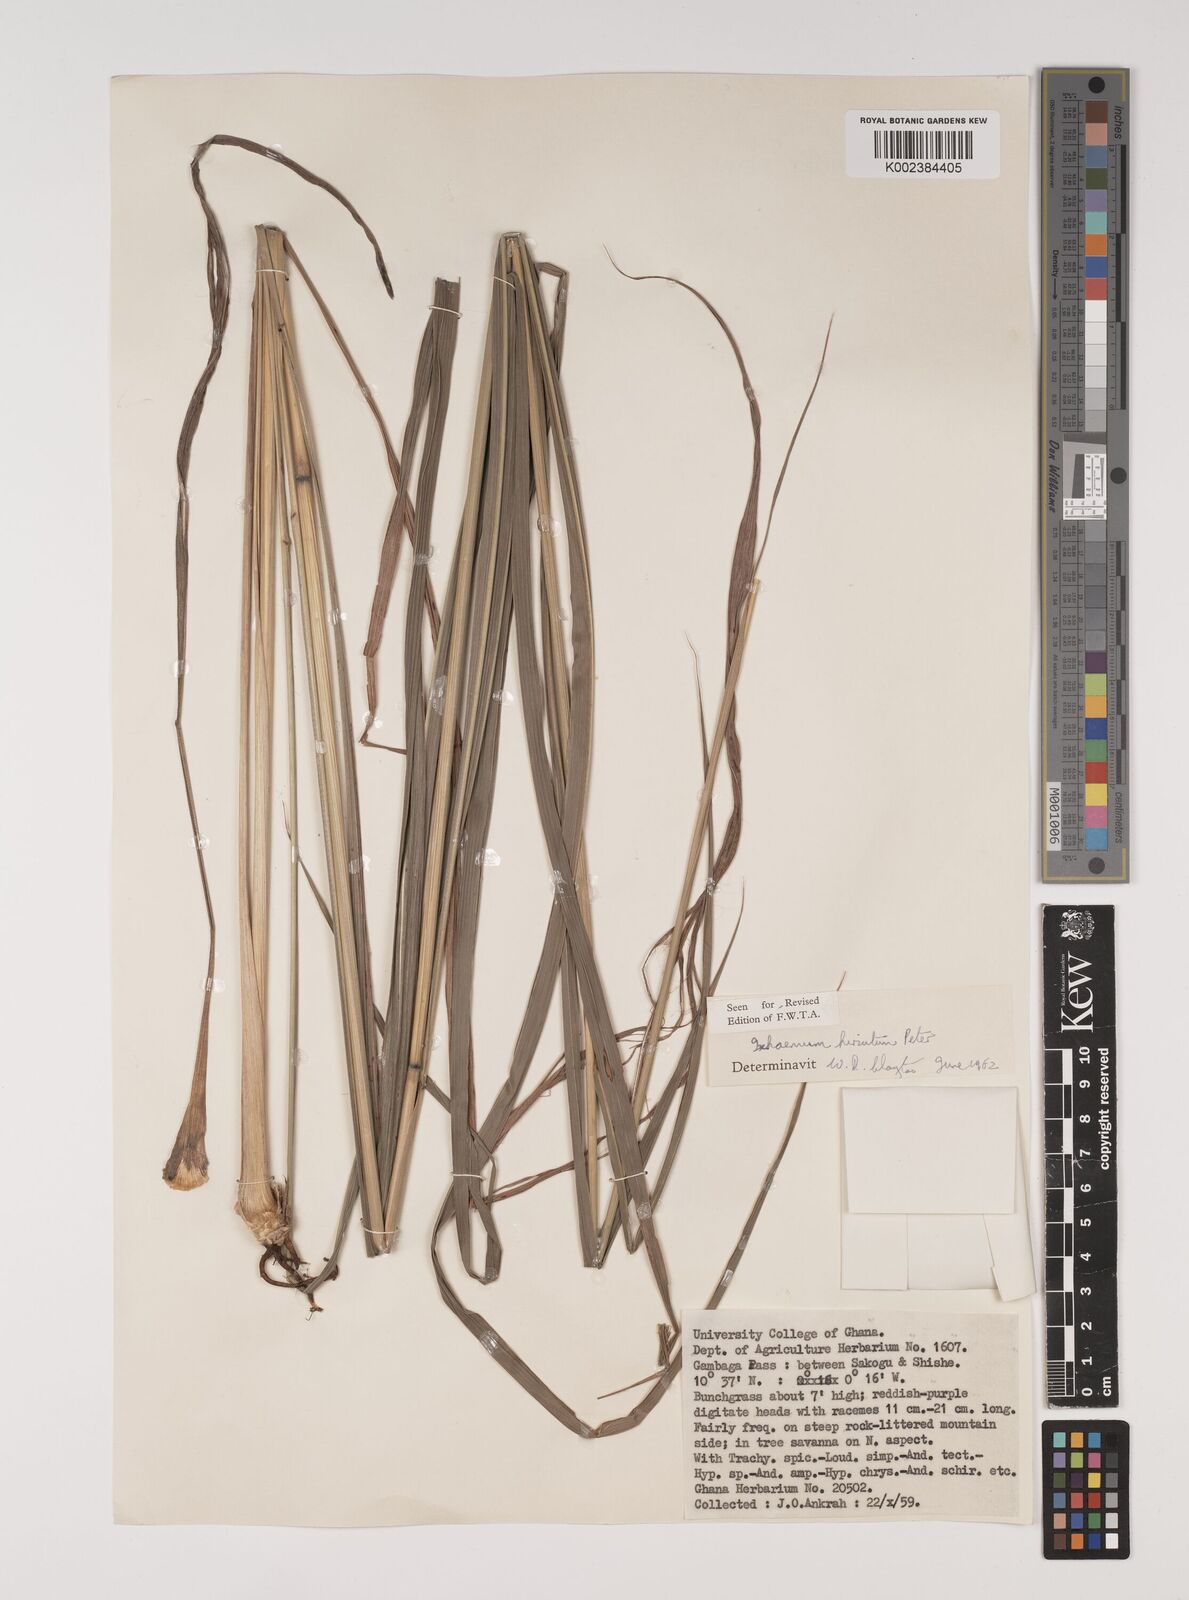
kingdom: Plantae
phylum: Tracheophyta
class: Liliopsida
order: Poales
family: Poaceae
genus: Rottboellia
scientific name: Rottboellia villosa
